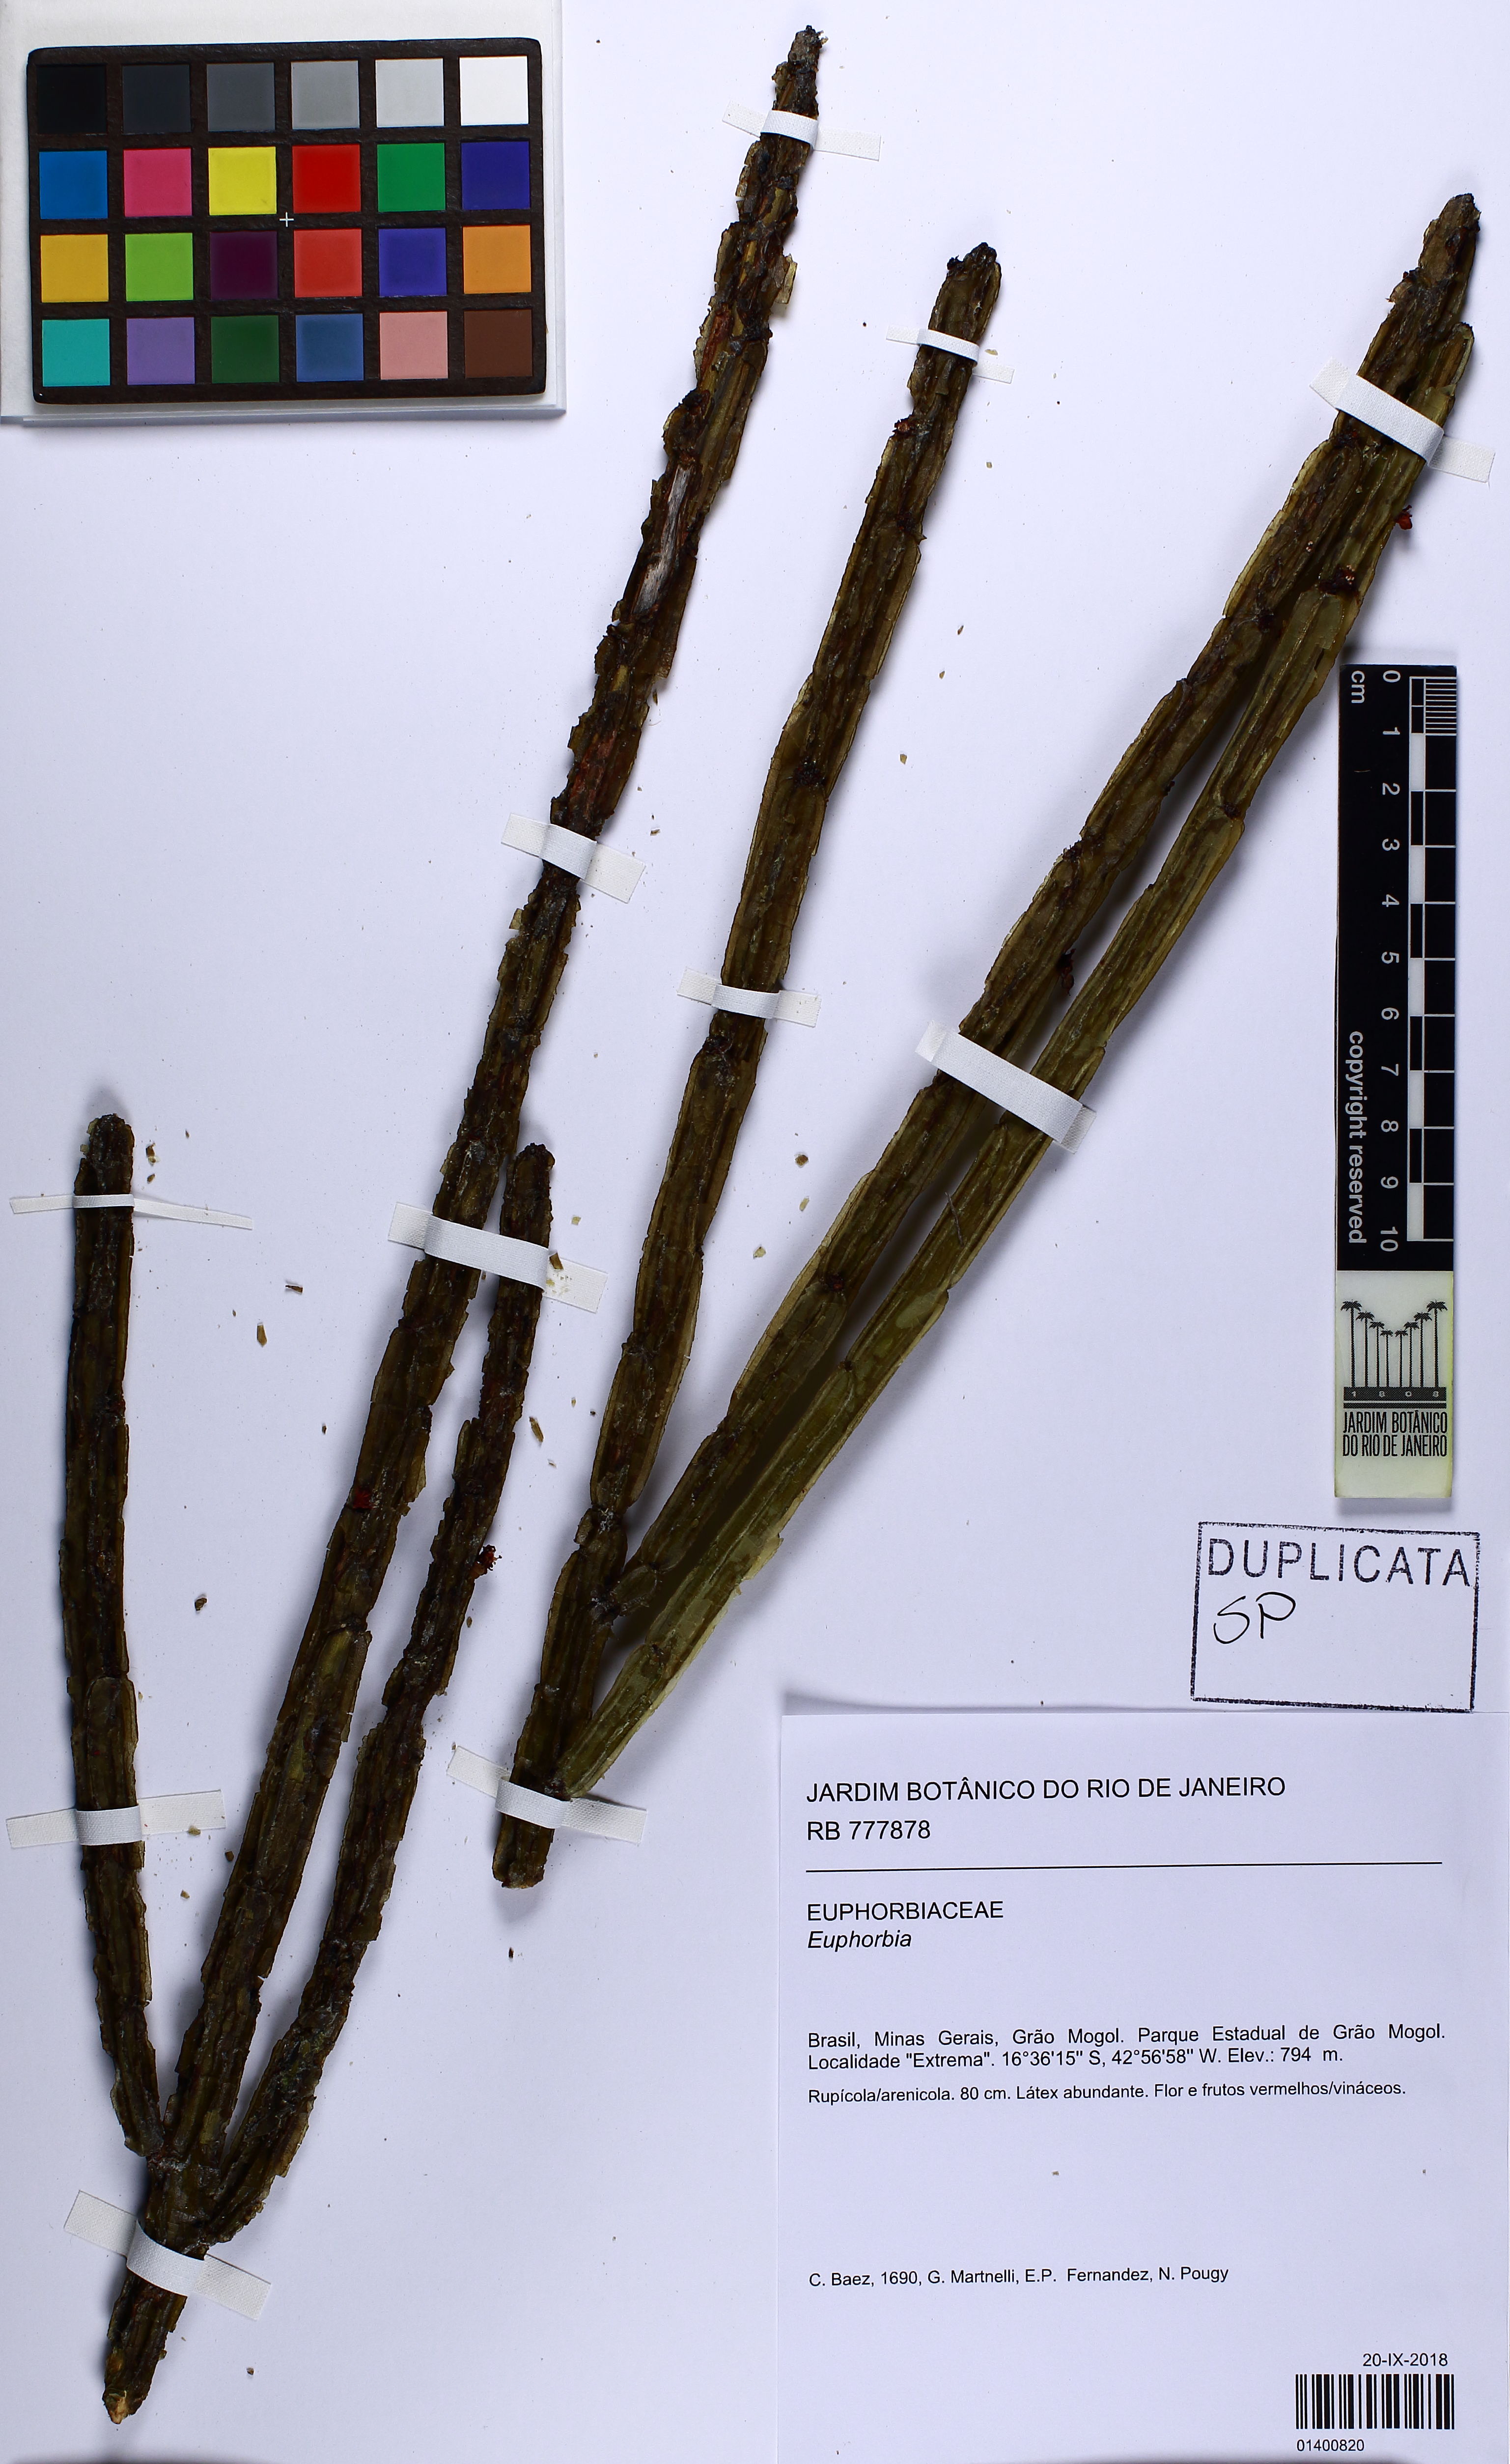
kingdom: Plantae
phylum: Tracheophyta
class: Magnoliopsida
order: Malpighiales
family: Euphorbiaceae
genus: Euphorbia
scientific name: Euphorbia attastoma
